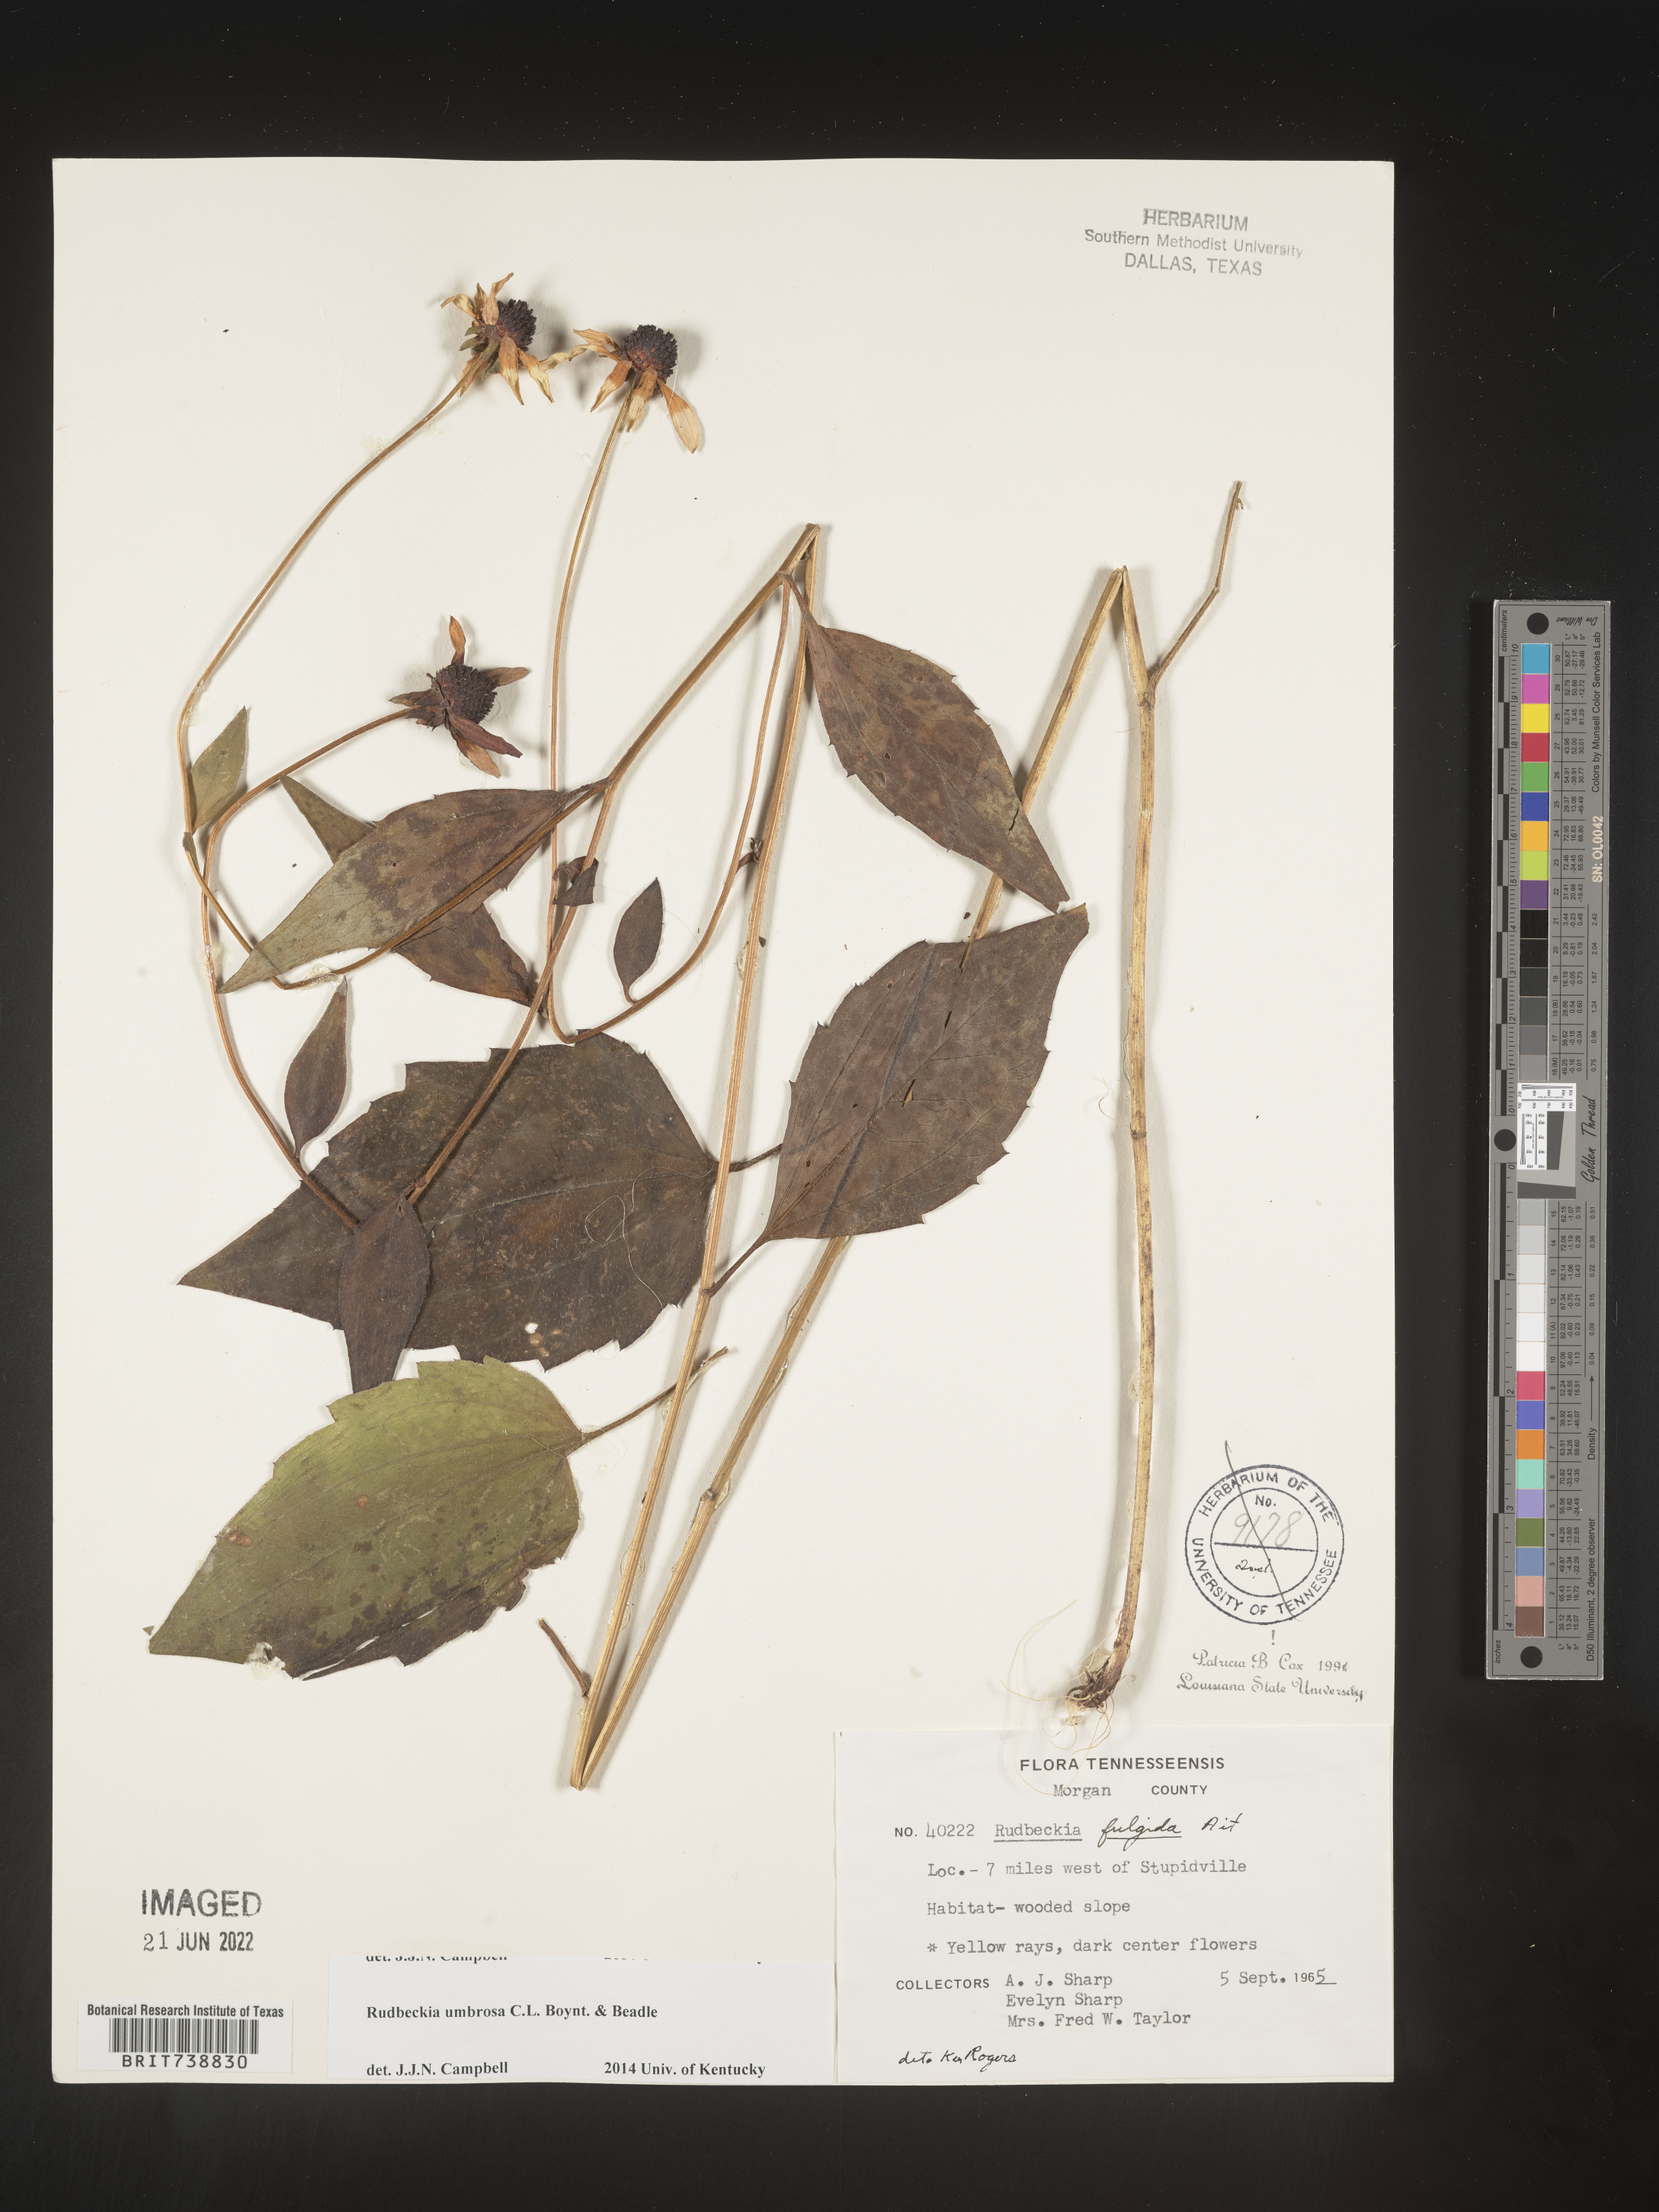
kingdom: Plantae
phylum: Tracheophyta
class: Magnoliopsida
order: Asterales
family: Asteraceae
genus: Rudbeckia
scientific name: Rudbeckia fulgida
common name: Perennial coneflower
